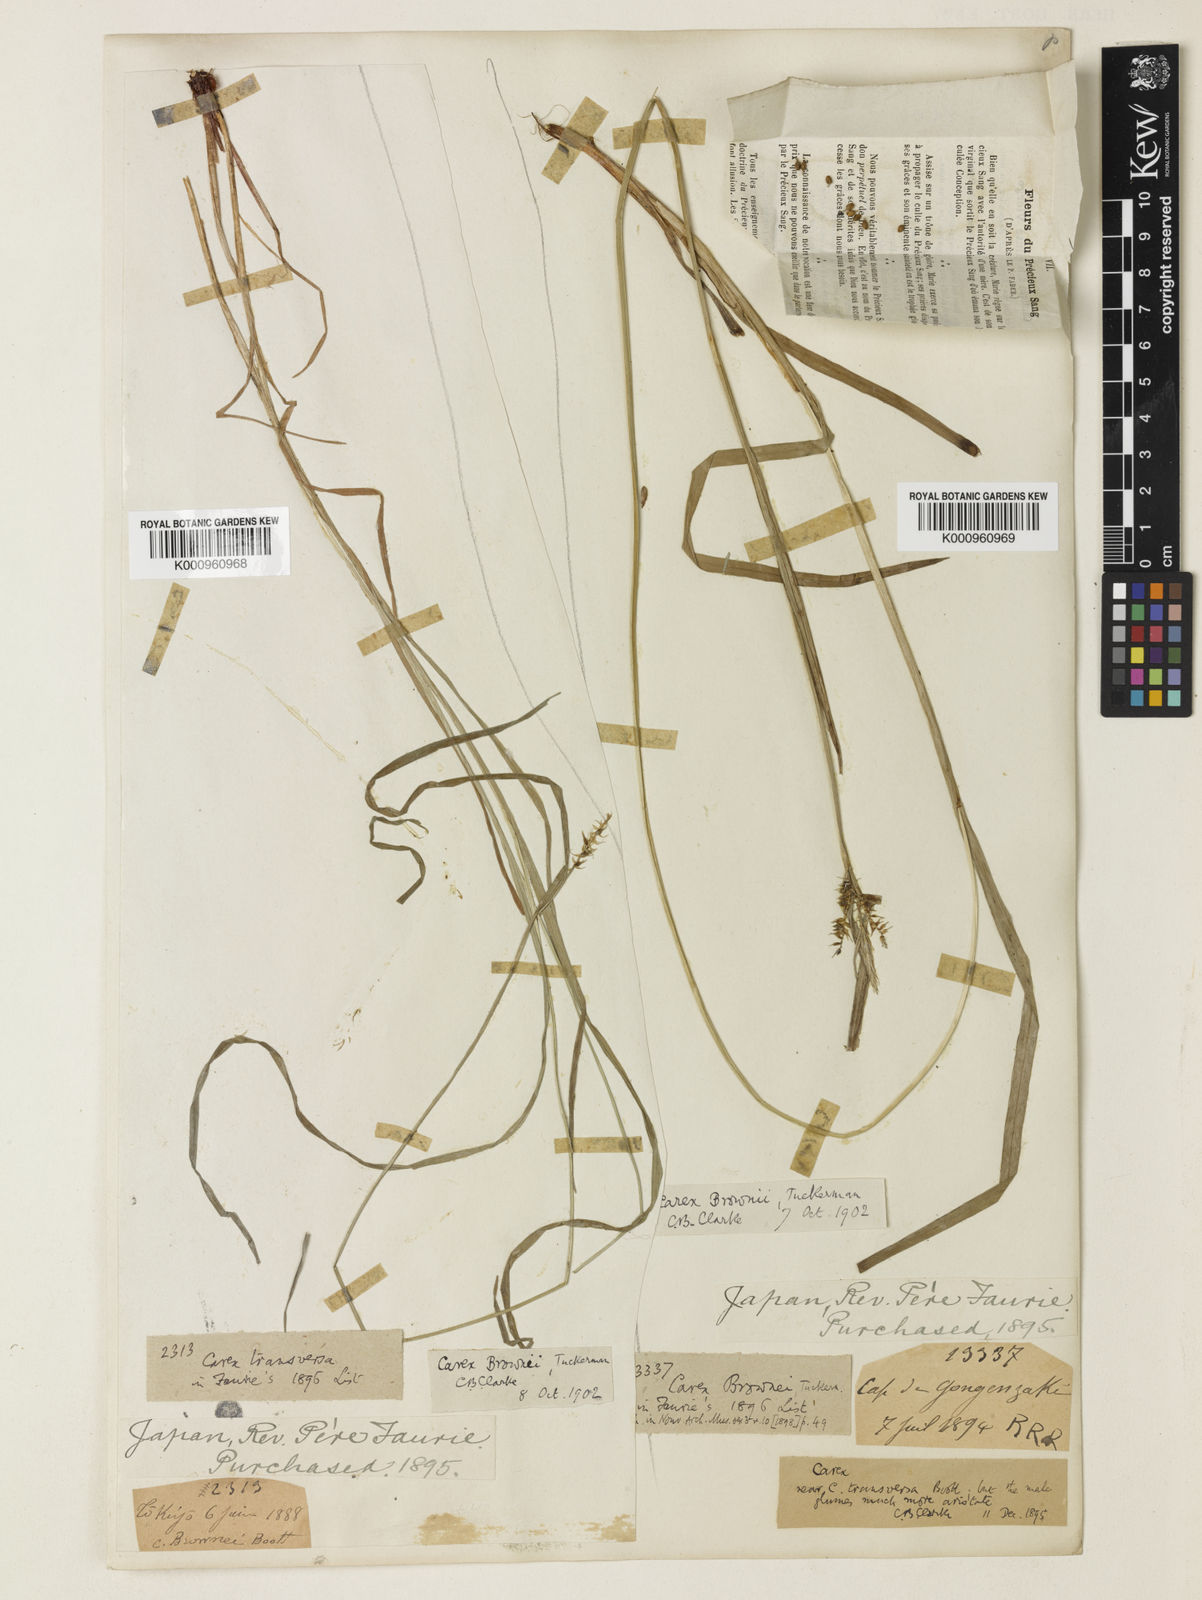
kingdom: Plantae
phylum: Tracheophyta
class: Liliopsida
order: Poales
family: Cyperaceae
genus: Carex
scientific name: Carex brownii
